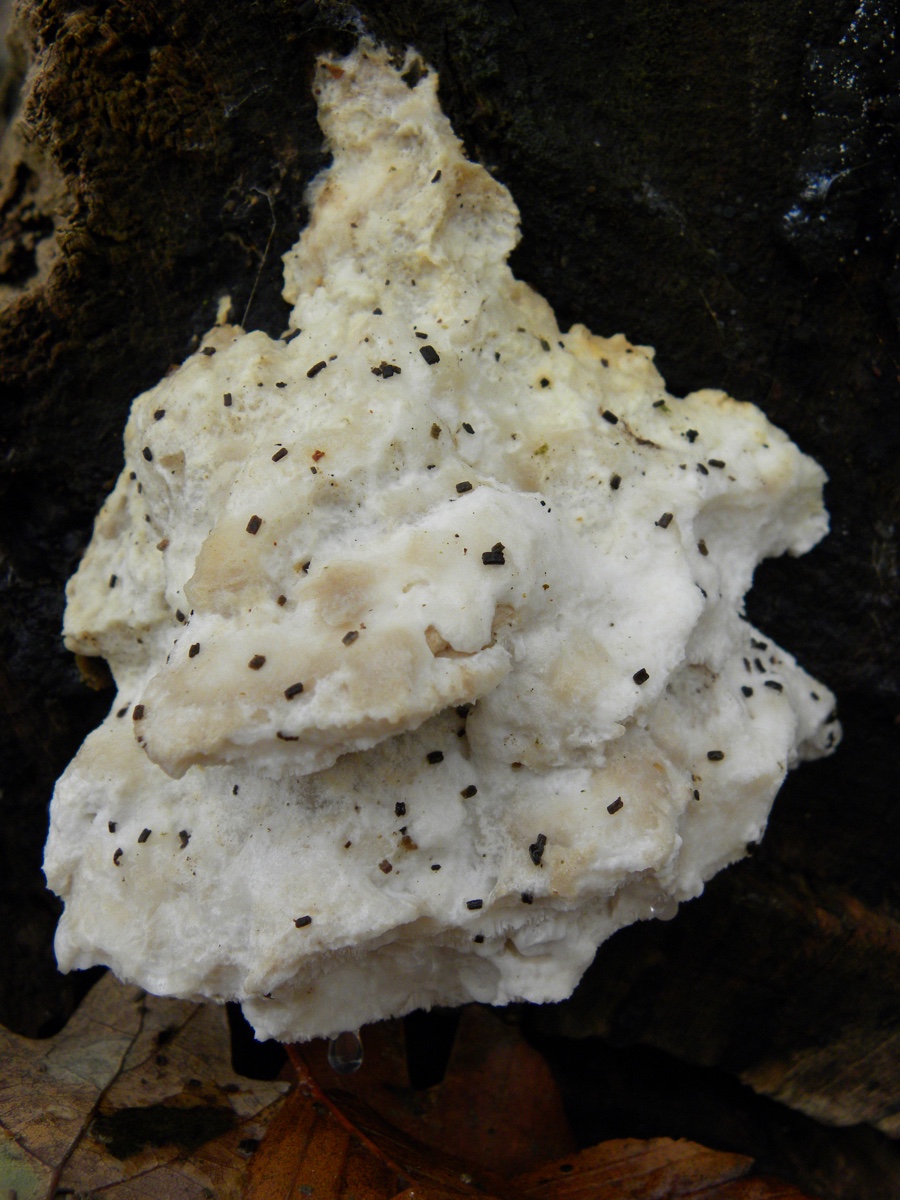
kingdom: Fungi
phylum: Basidiomycota
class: Agaricomycetes
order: Polyporales
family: Incrustoporiaceae
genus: Tyromyces
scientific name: Tyromyces lacteus
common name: mælkehvid kødporesvamp
